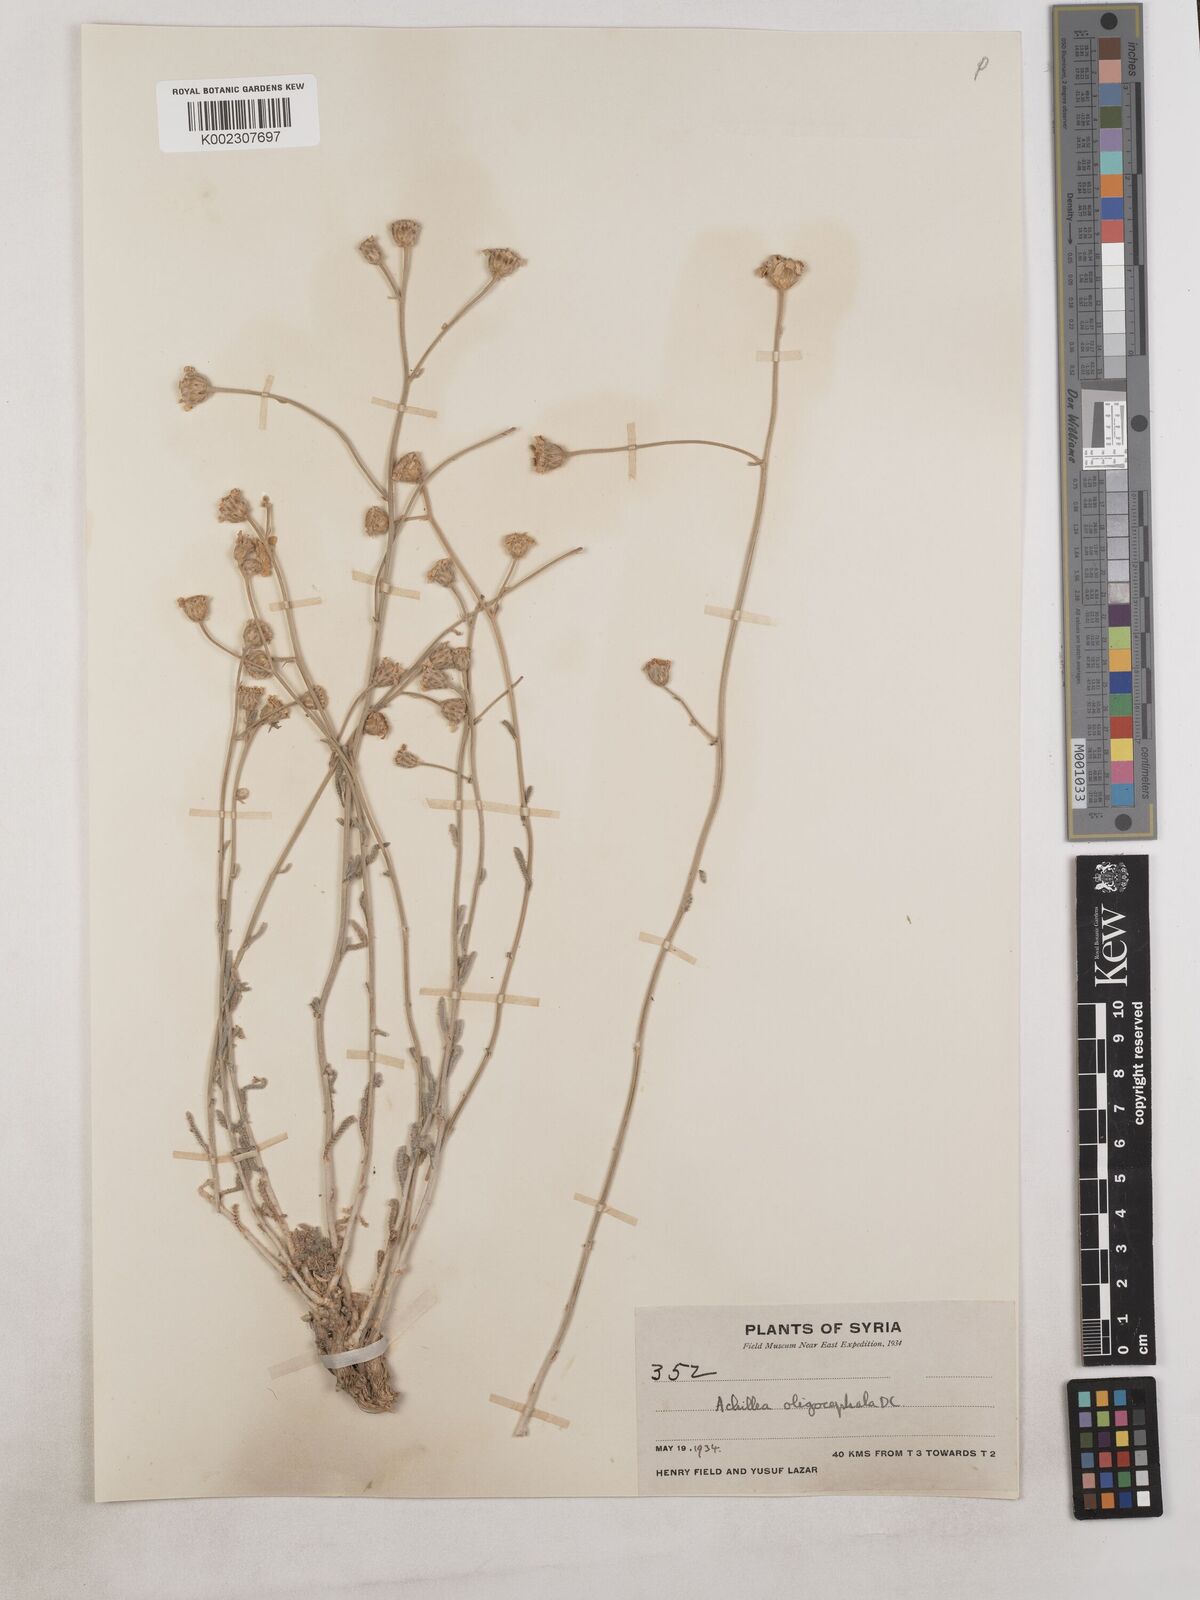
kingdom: Plantae
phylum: Tracheophyta
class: Magnoliopsida
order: Asterales
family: Asteraceae
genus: Achillea
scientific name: Achillea oligocephala
